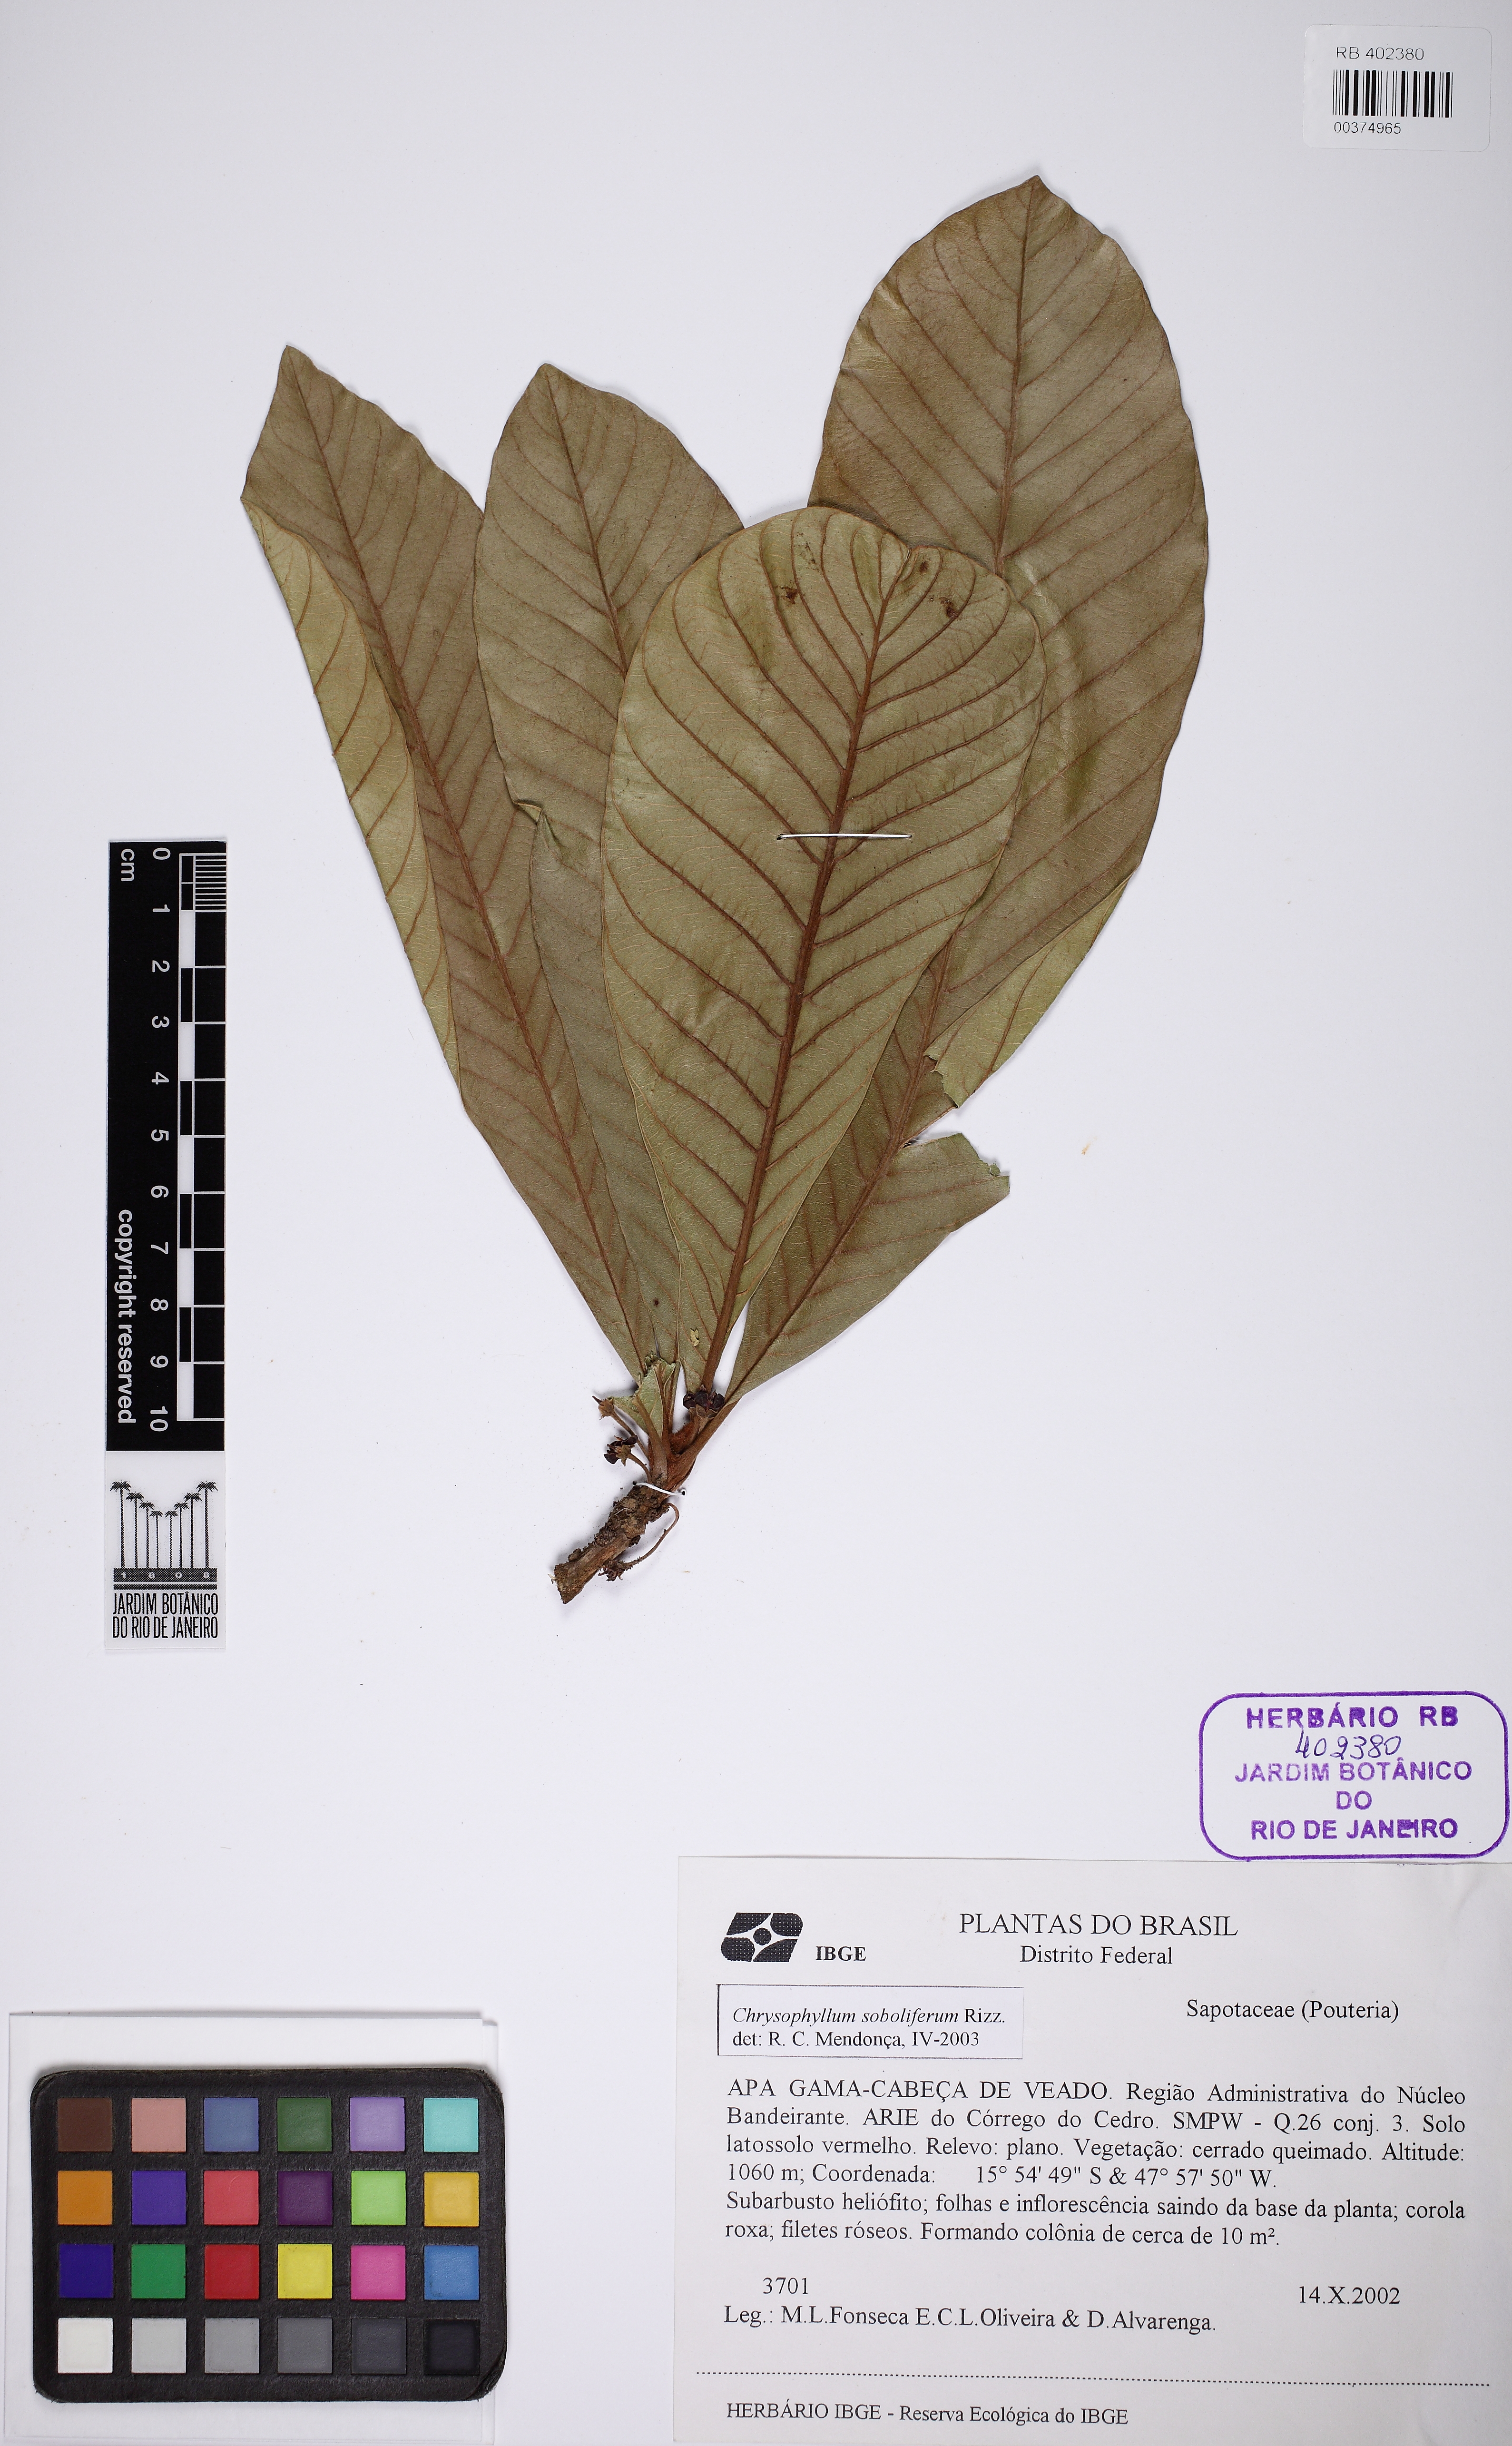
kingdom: Plantae
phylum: Tracheophyta
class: Magnoliopsida
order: Ericales
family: Sapotaceae
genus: Pradosia
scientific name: Pradosia brevipes
